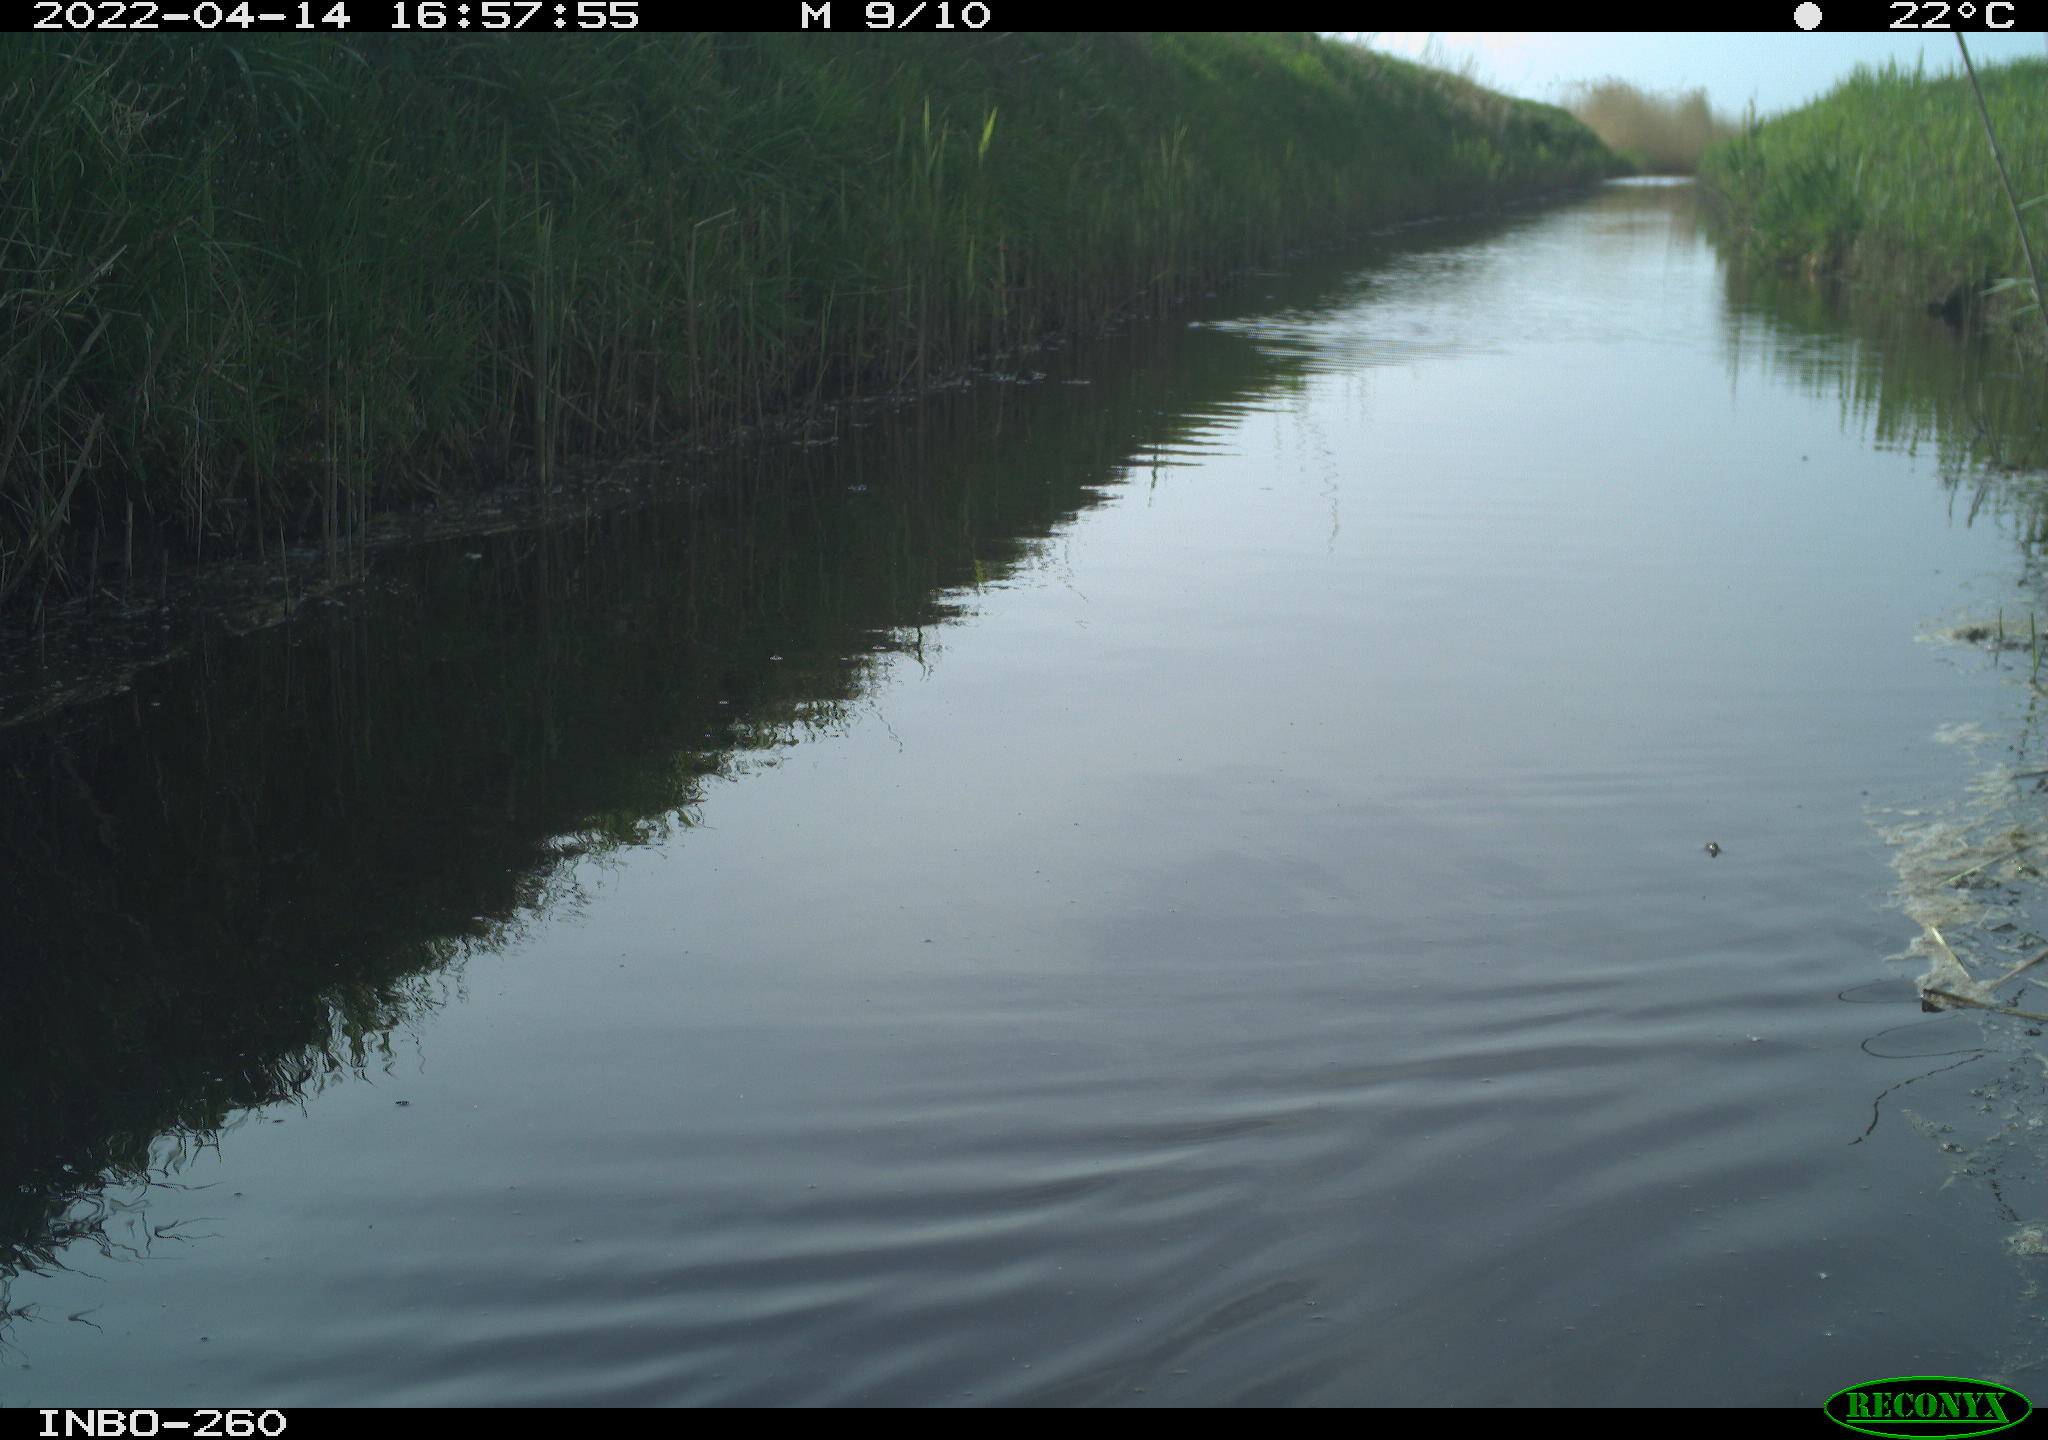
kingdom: Animalia
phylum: Chordata
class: Aves
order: Gruiformes
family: Rallidae
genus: Fulica
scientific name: Fulica atra
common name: Eurasian coot
